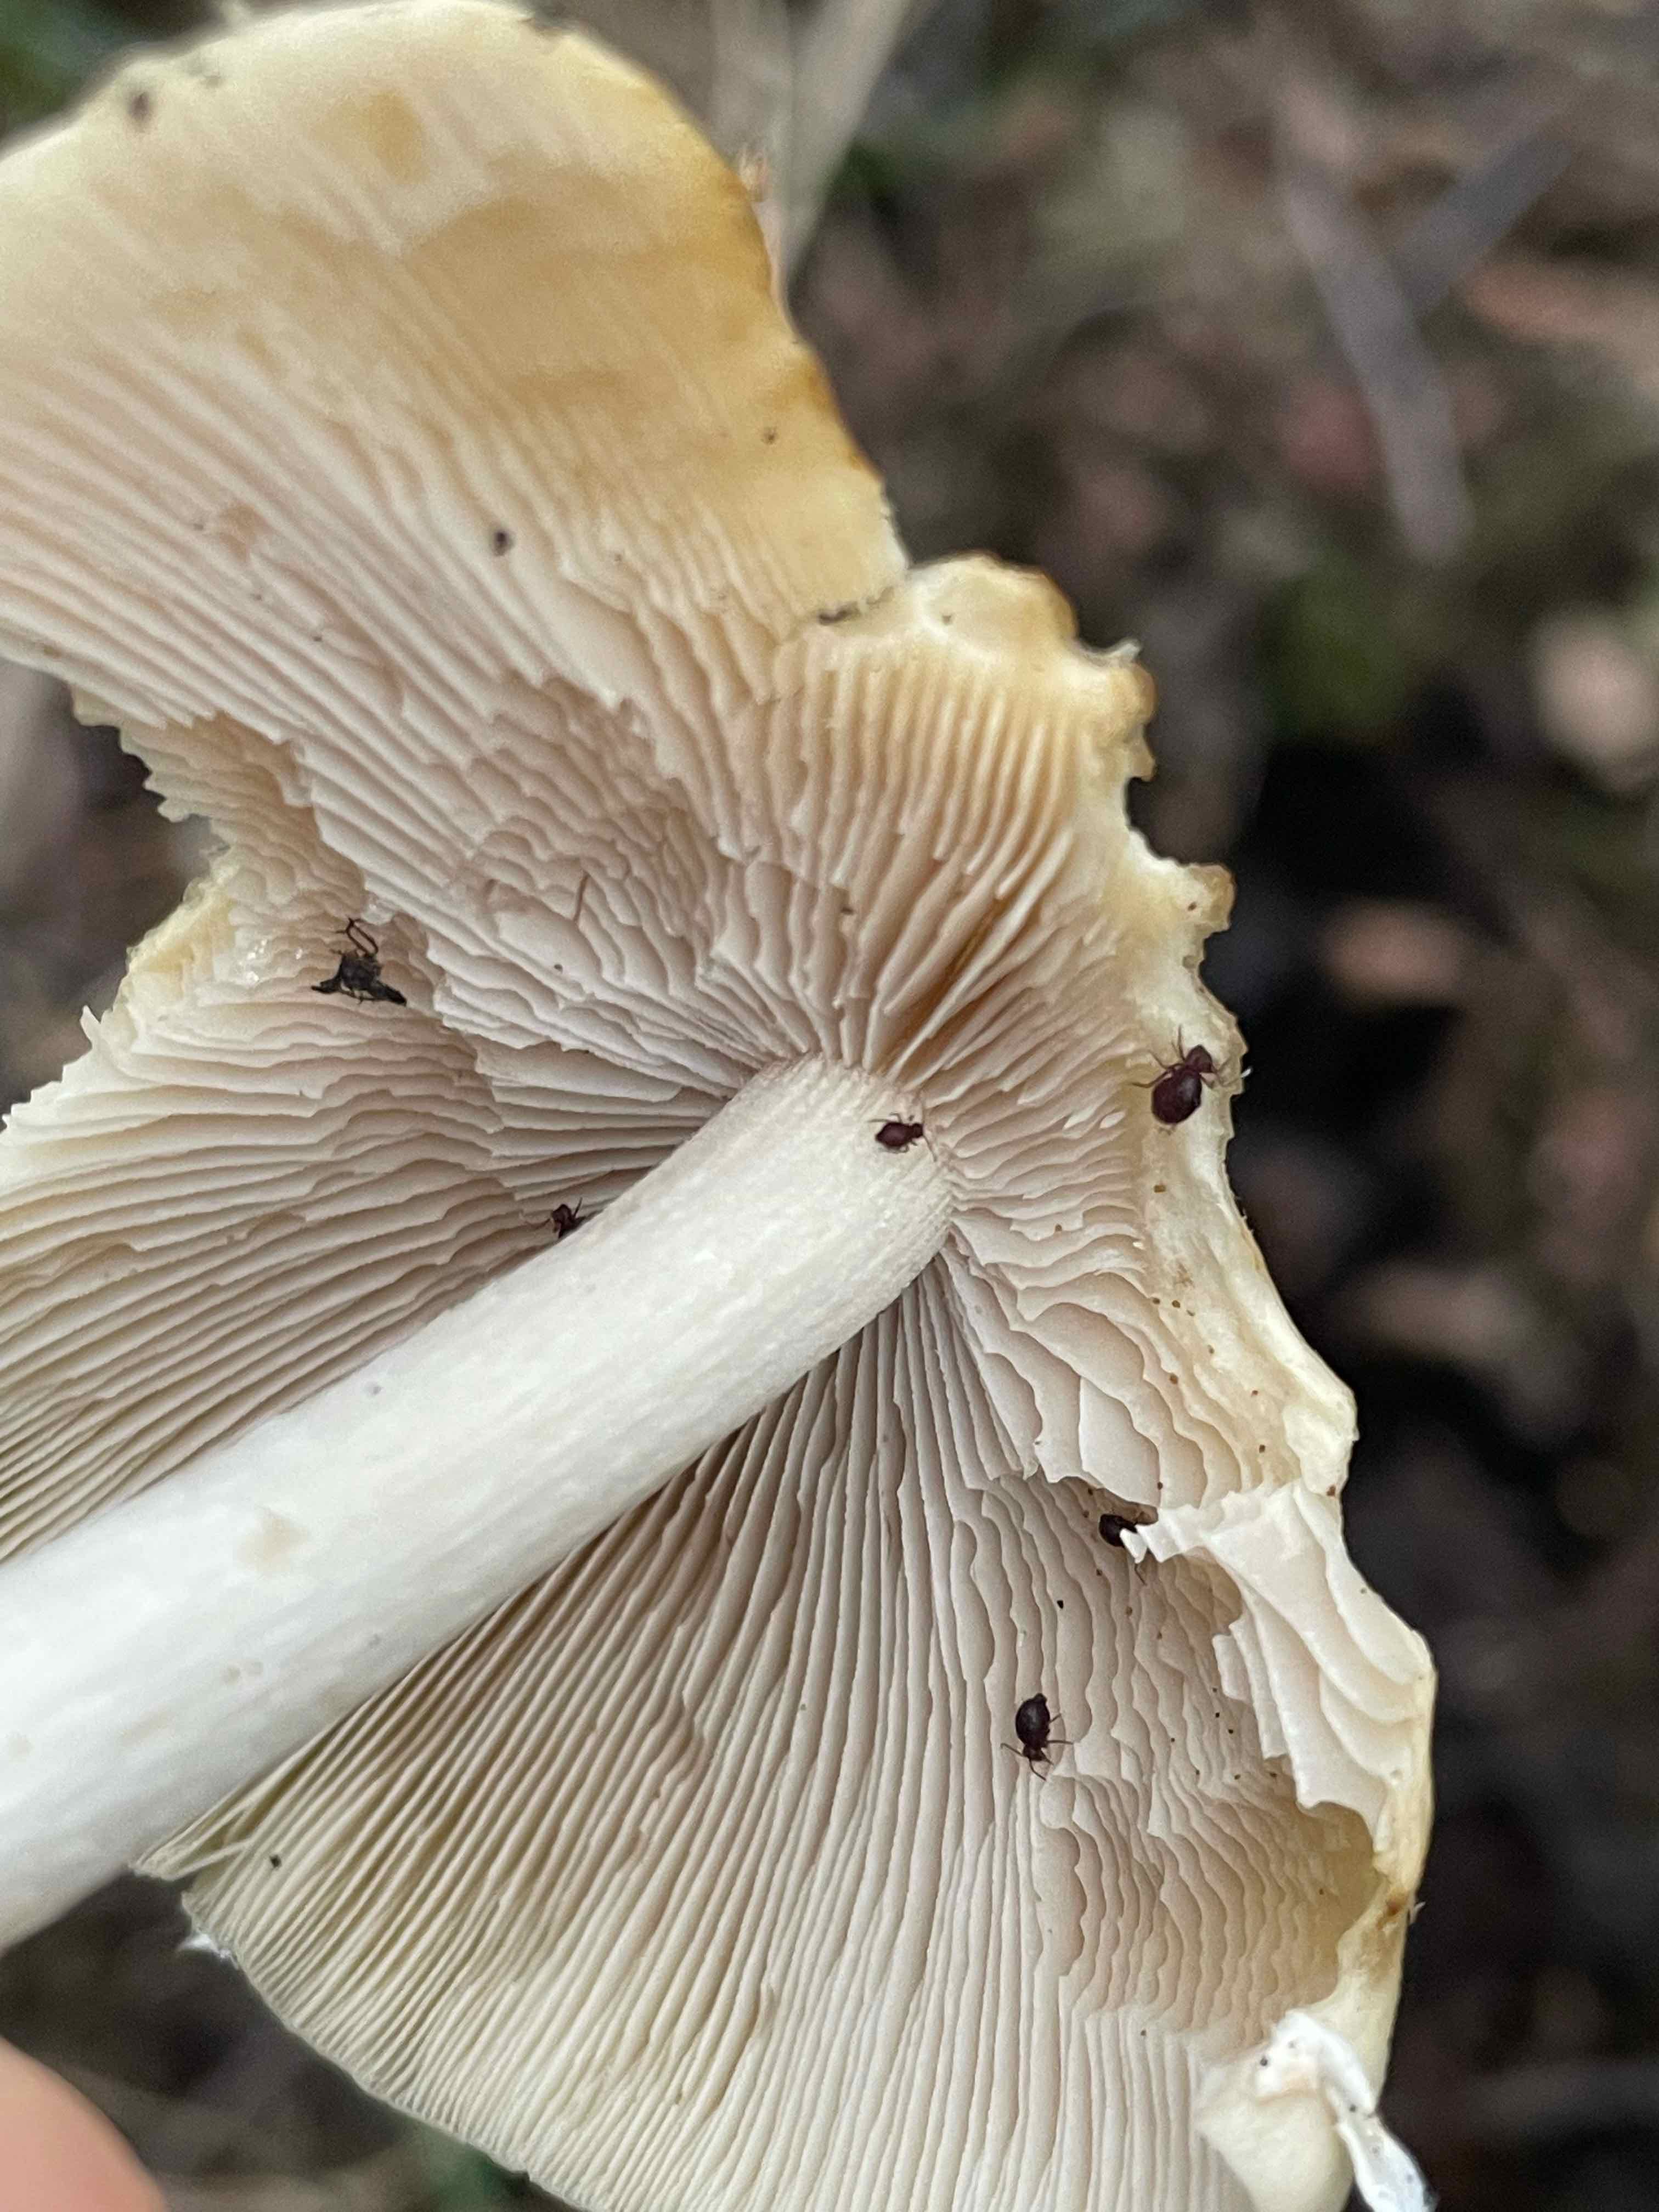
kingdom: Fungi
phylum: Basidiomycota
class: Agaricomycetes
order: Agaricales
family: Psathyrellaceae
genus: Candolleomyces
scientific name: Candolleomyces candolleanus
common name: Candolles mørkhat
